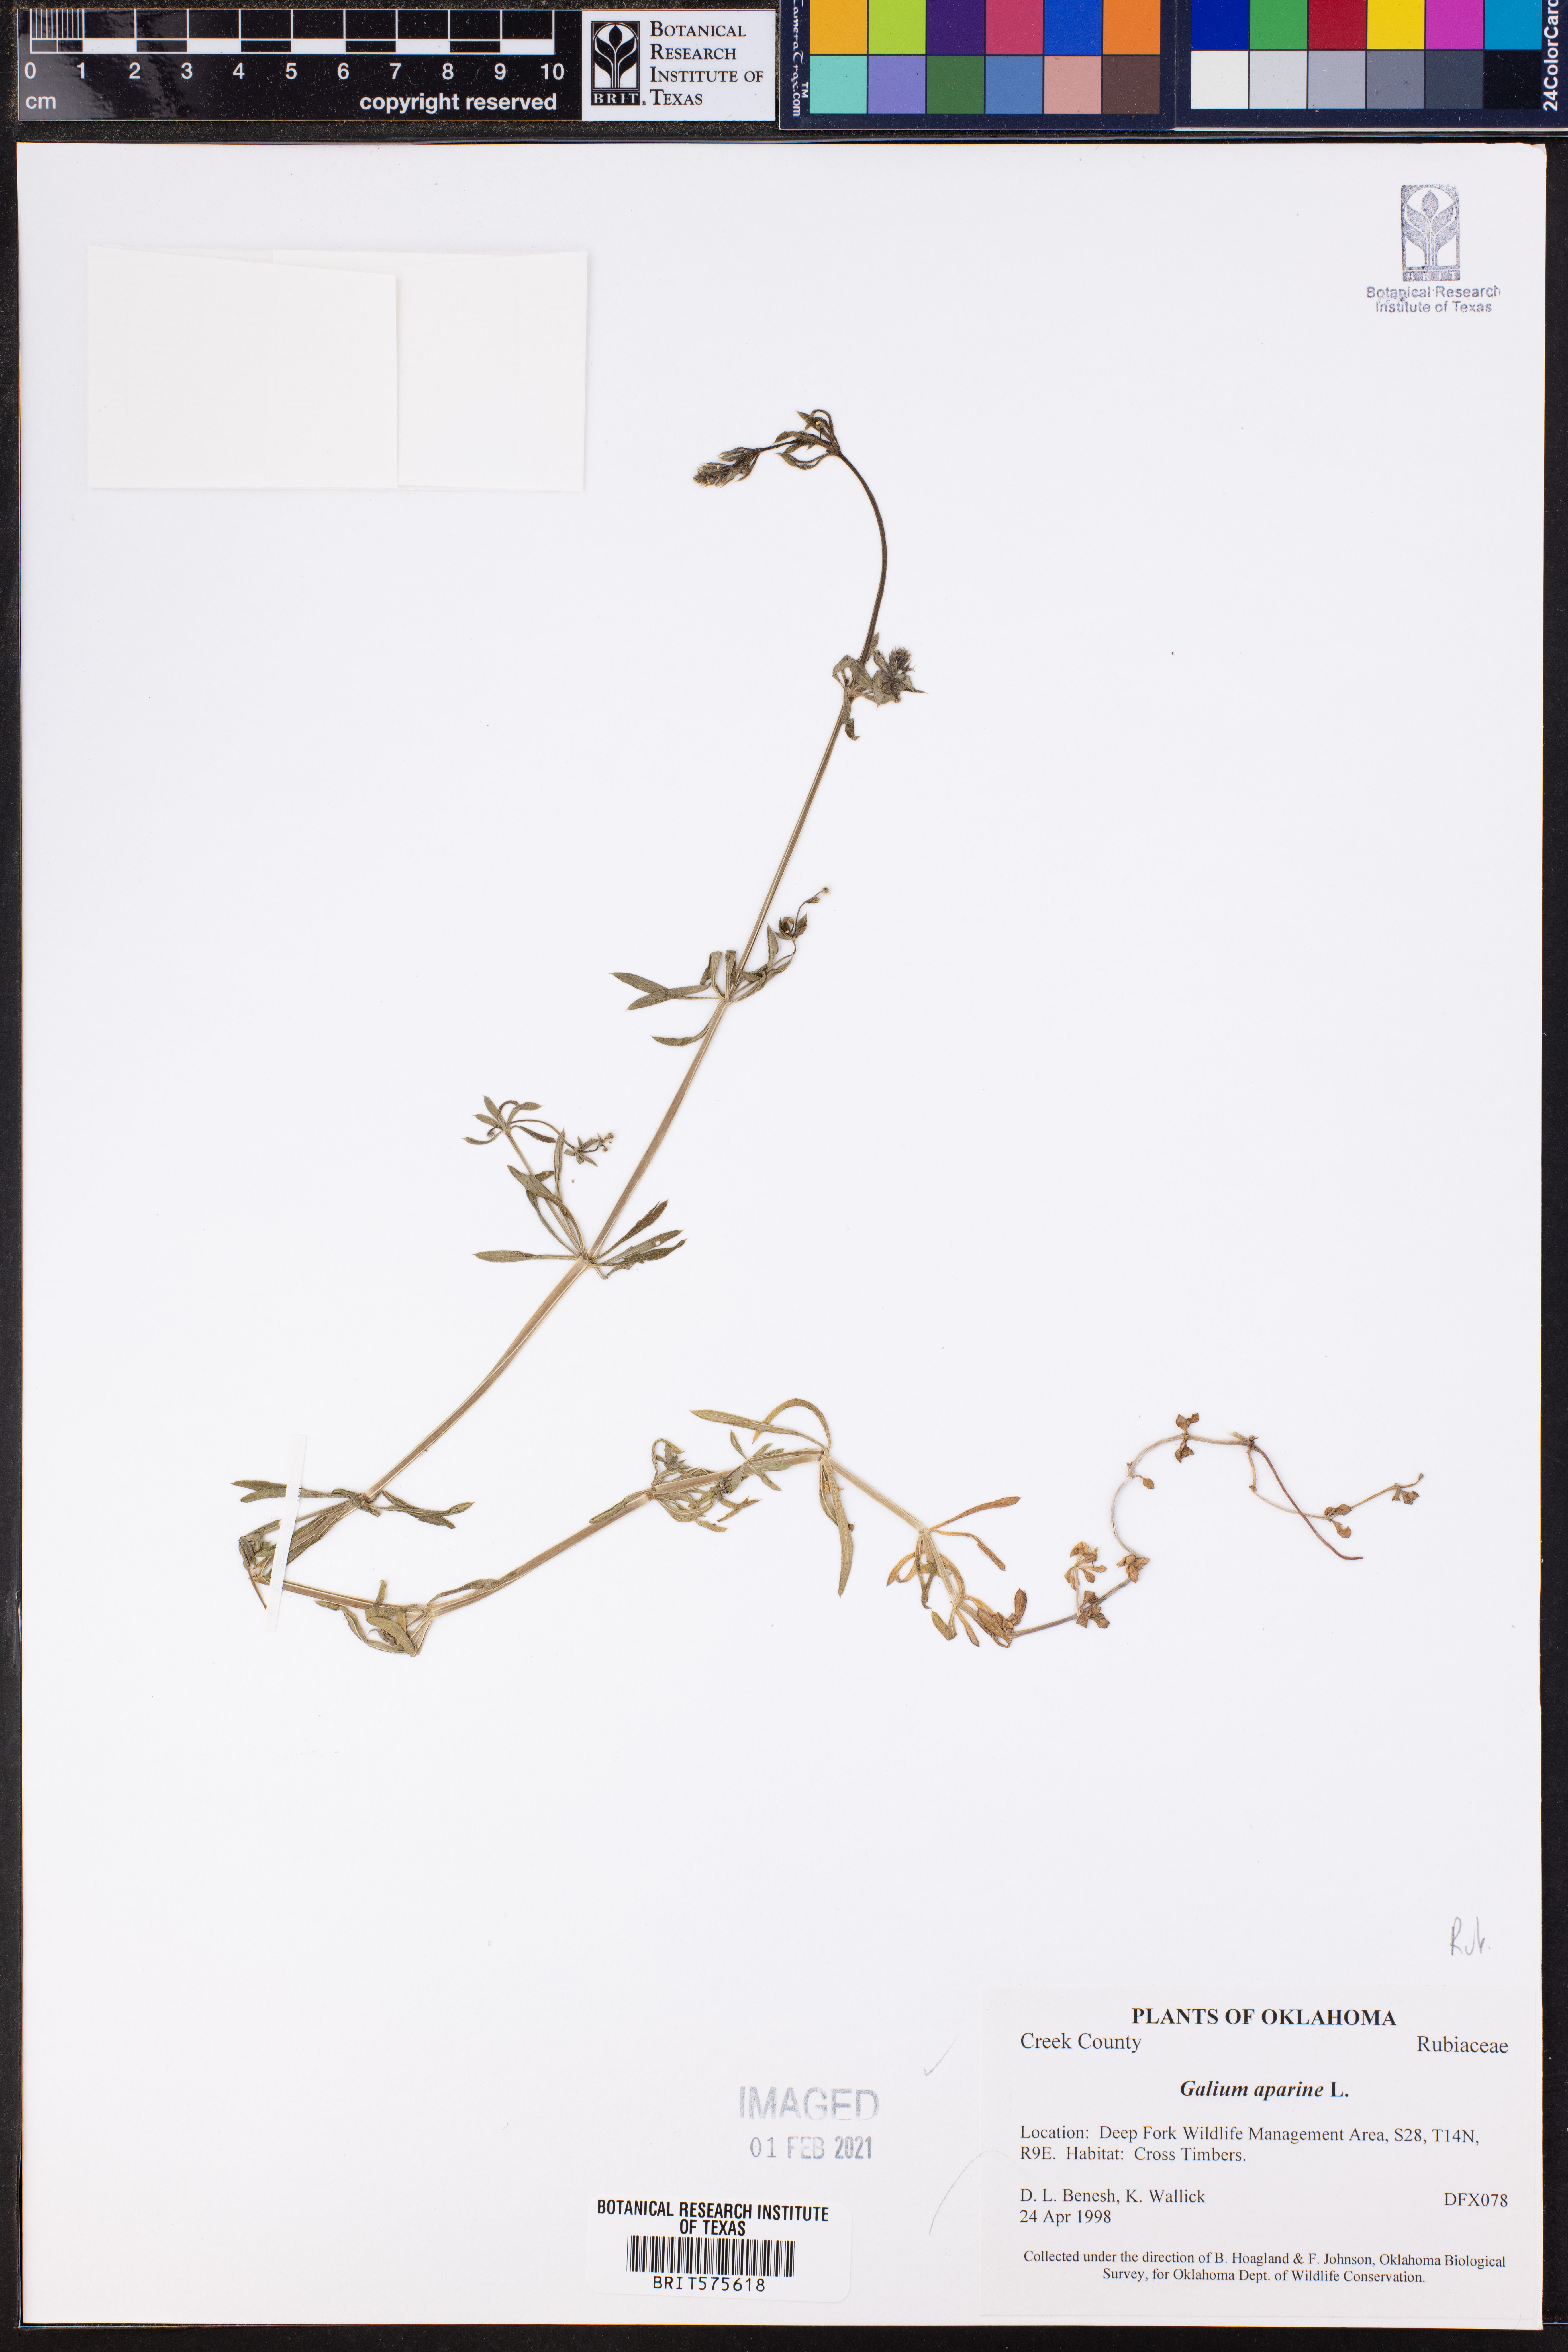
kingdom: Plantae
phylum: Tracheophyta
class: Magnoliopsida
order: Gentianales
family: Rubiaceae
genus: Galium
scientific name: Galium aparine
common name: Cleavers
